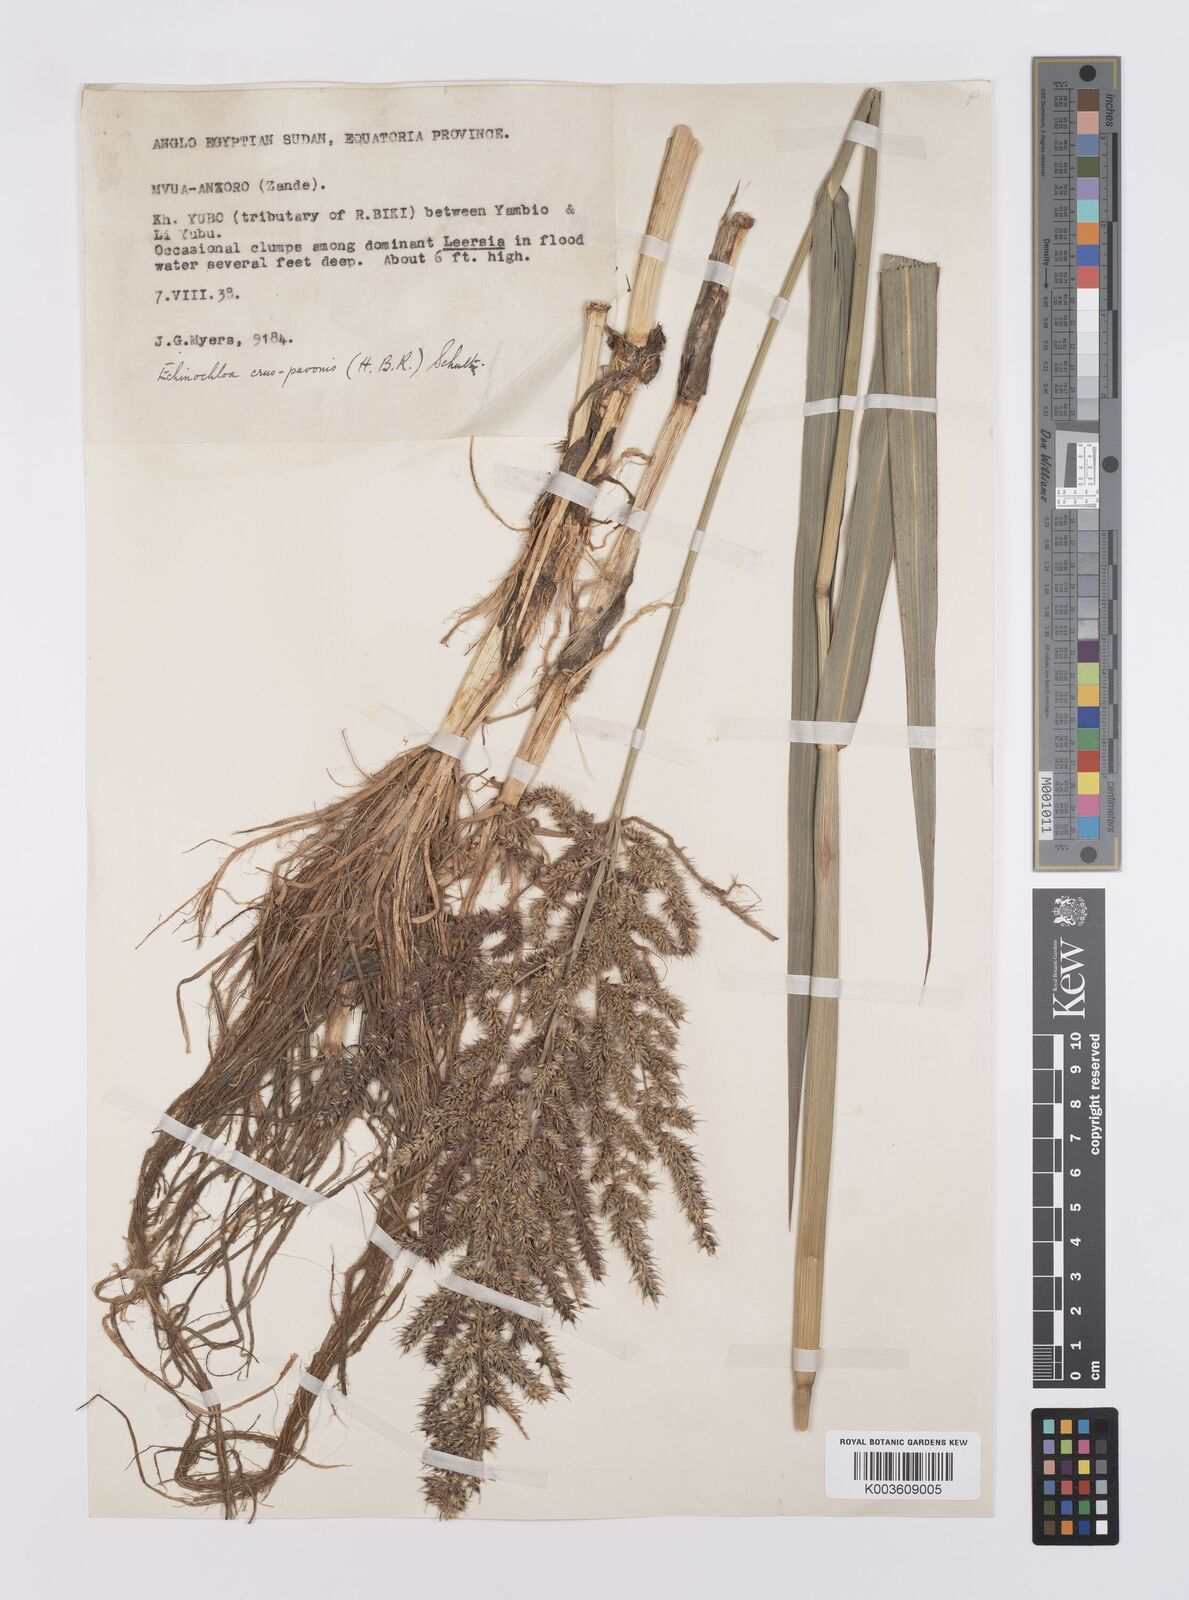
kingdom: Plantae
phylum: Tracheophyta
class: Liliopsida
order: Poales
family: Poaceae
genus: Echinochloa
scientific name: Echinochloa crus-pavonis
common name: Gulf cockspur grass
